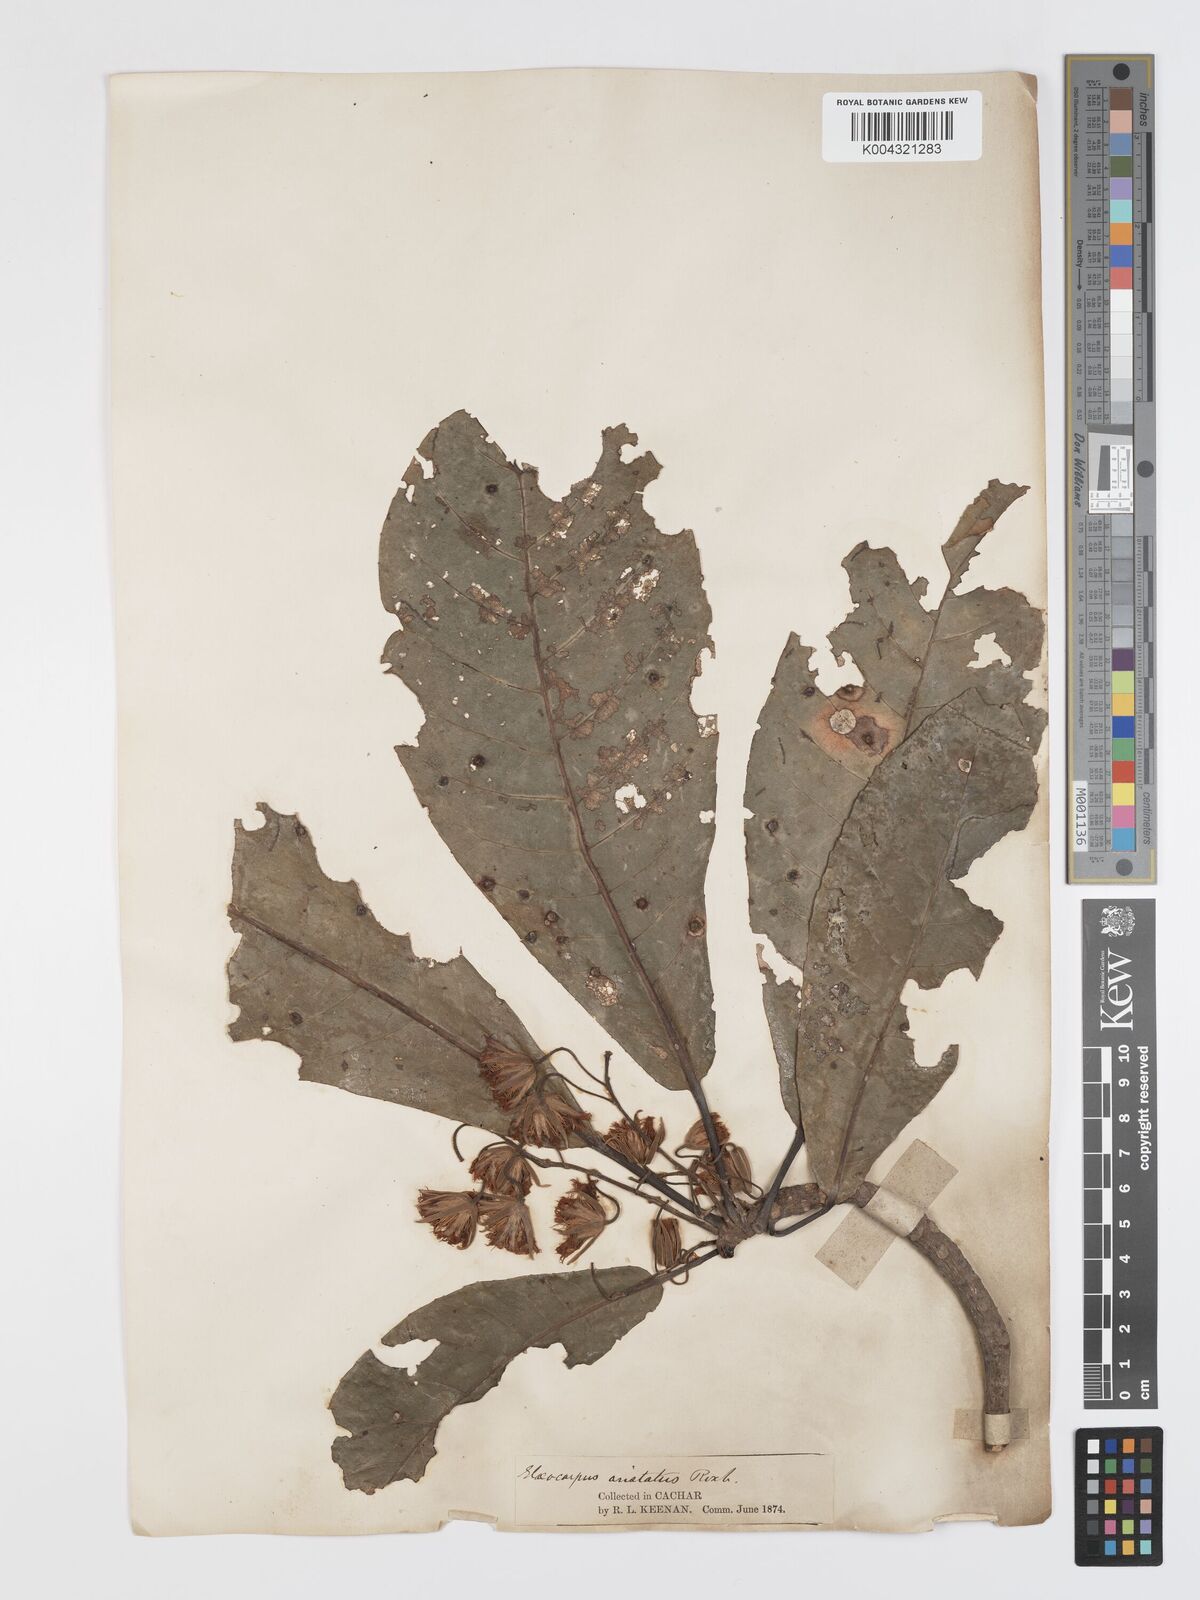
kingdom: Plantae
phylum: Tracheophyta
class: Magnoliopsida
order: Oxalidales
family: Elaeocarpaceae
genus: Elaeocarpus
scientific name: Elaeocarpus aristatus
